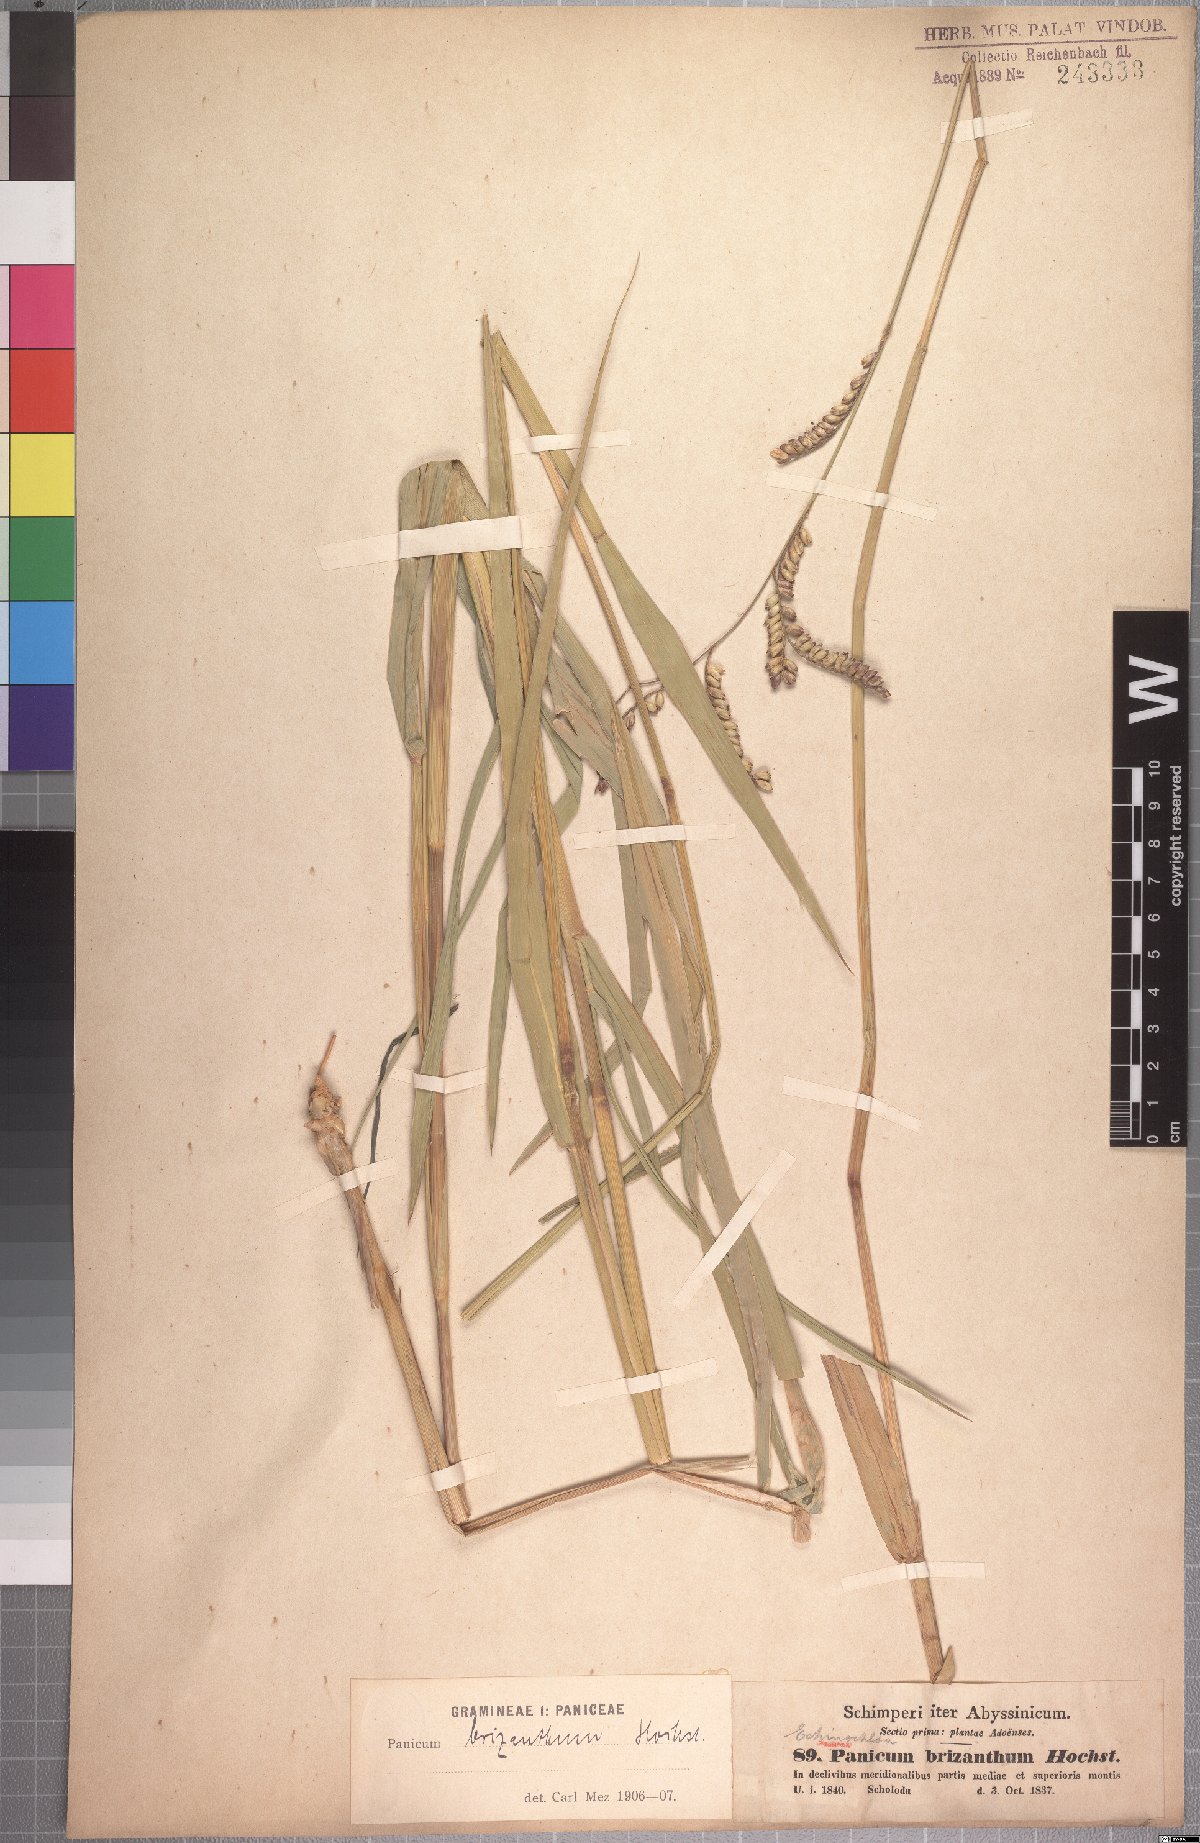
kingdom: Plantae
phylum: Tracheophyta
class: Liliopsida
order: Poales
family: Poaceae
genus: Urochloa
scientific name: Urochloa brizantha
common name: Palisade signalgrass
